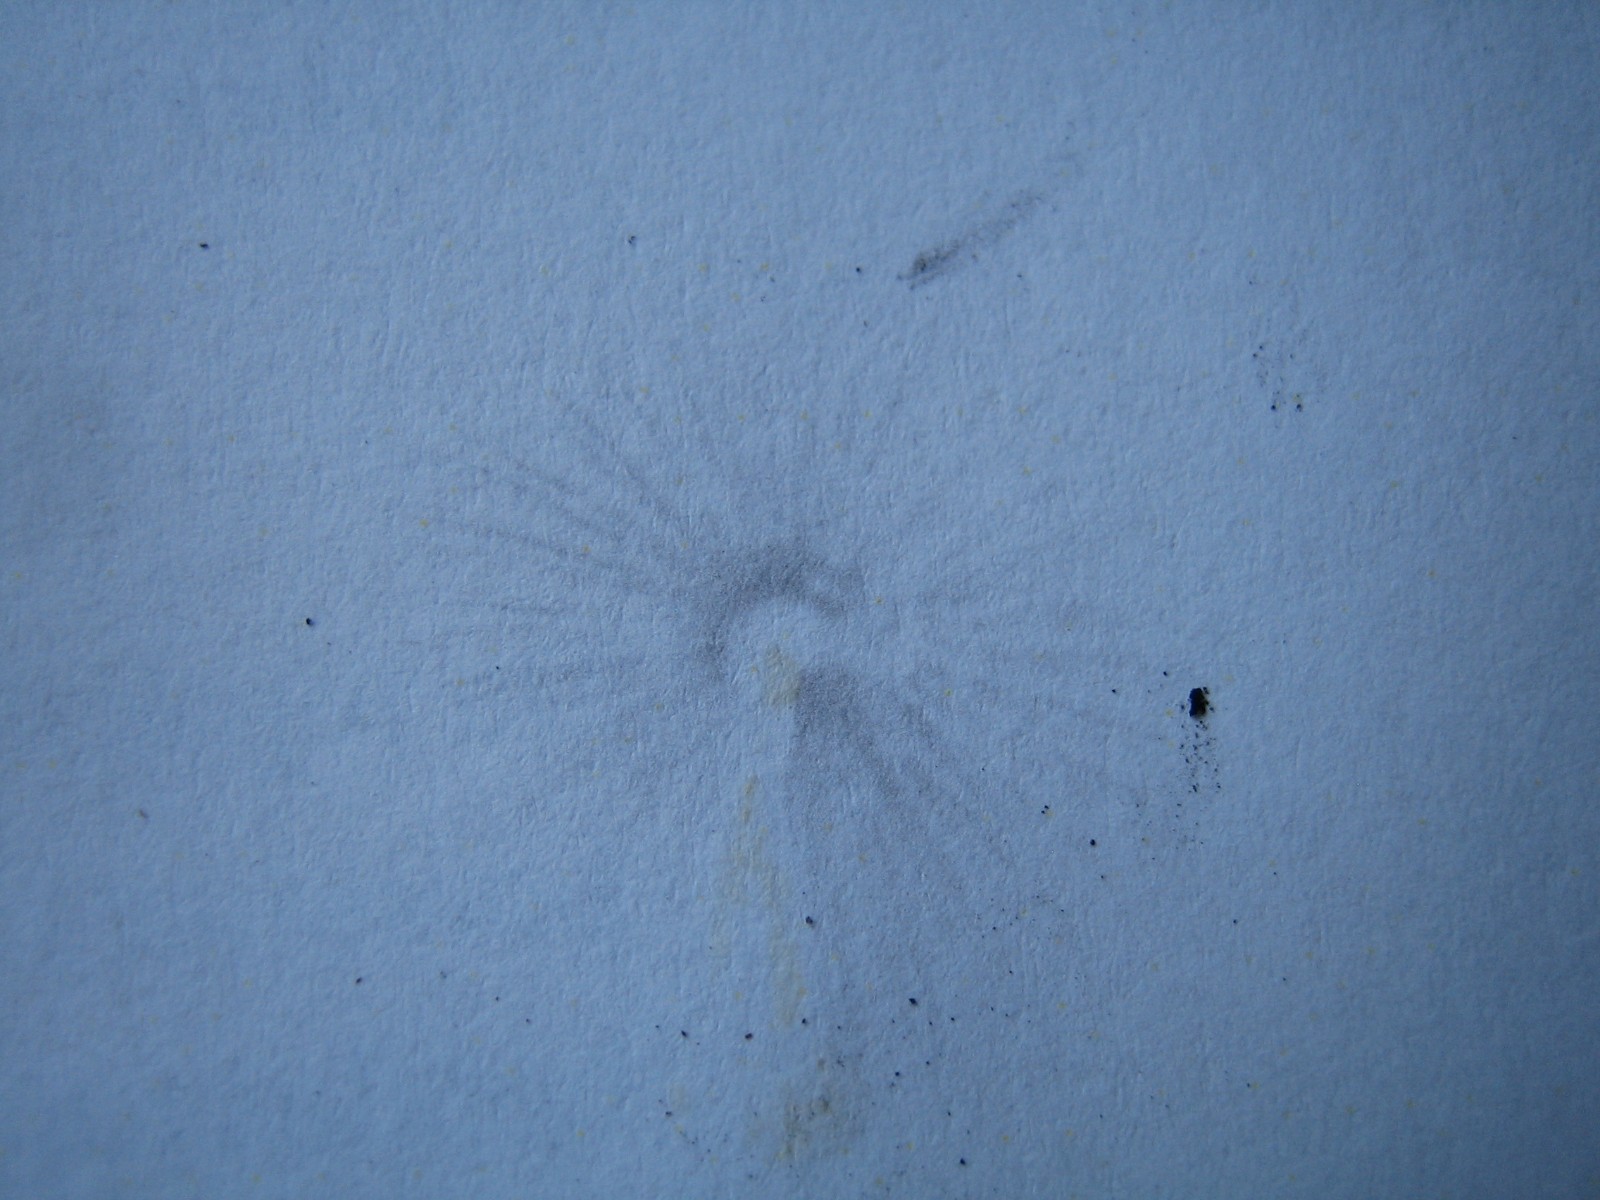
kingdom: Fungi
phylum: Basidiomycota
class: Agaricomycetes
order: Agaricales
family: Psathyrellaceae
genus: Parasola
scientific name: Parasola
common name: hjulhat
